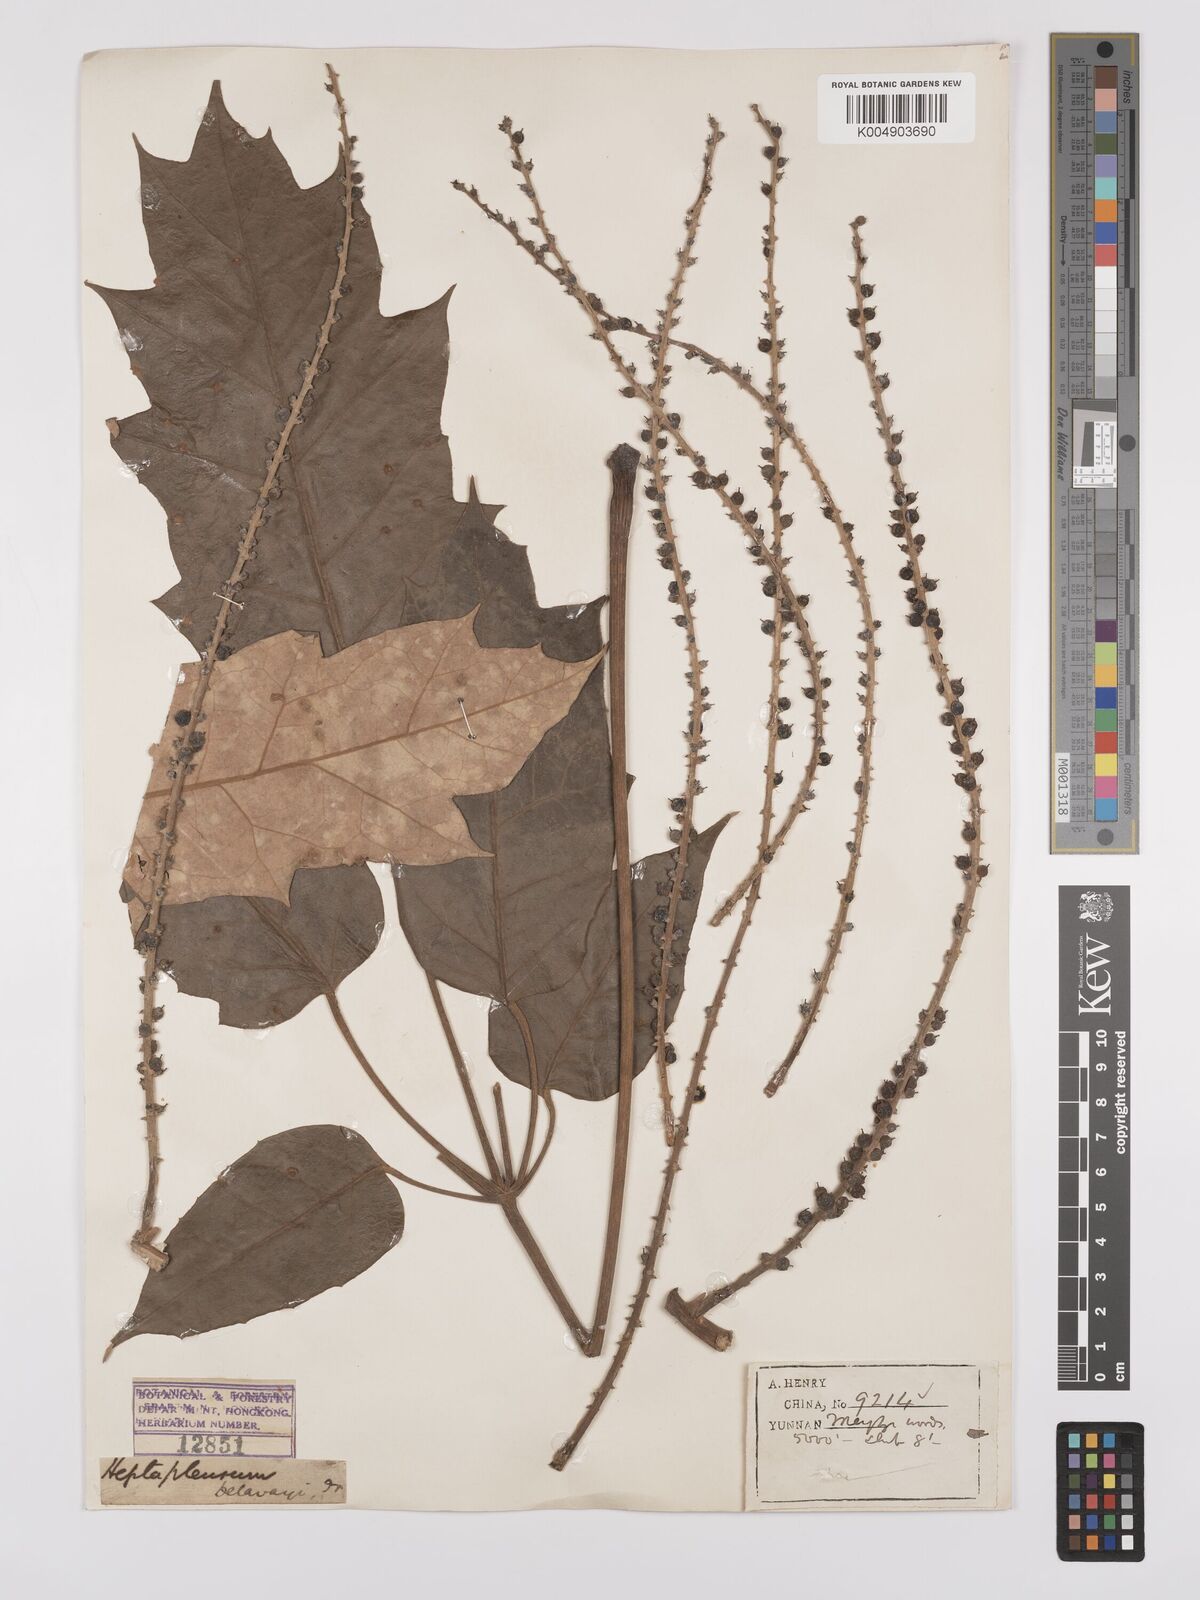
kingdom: Plantae
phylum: Tracheophyta
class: Magnoliopsida
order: Apiales
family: Araliaceae
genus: Heptapleurum
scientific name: Heptapleurum delavayi
